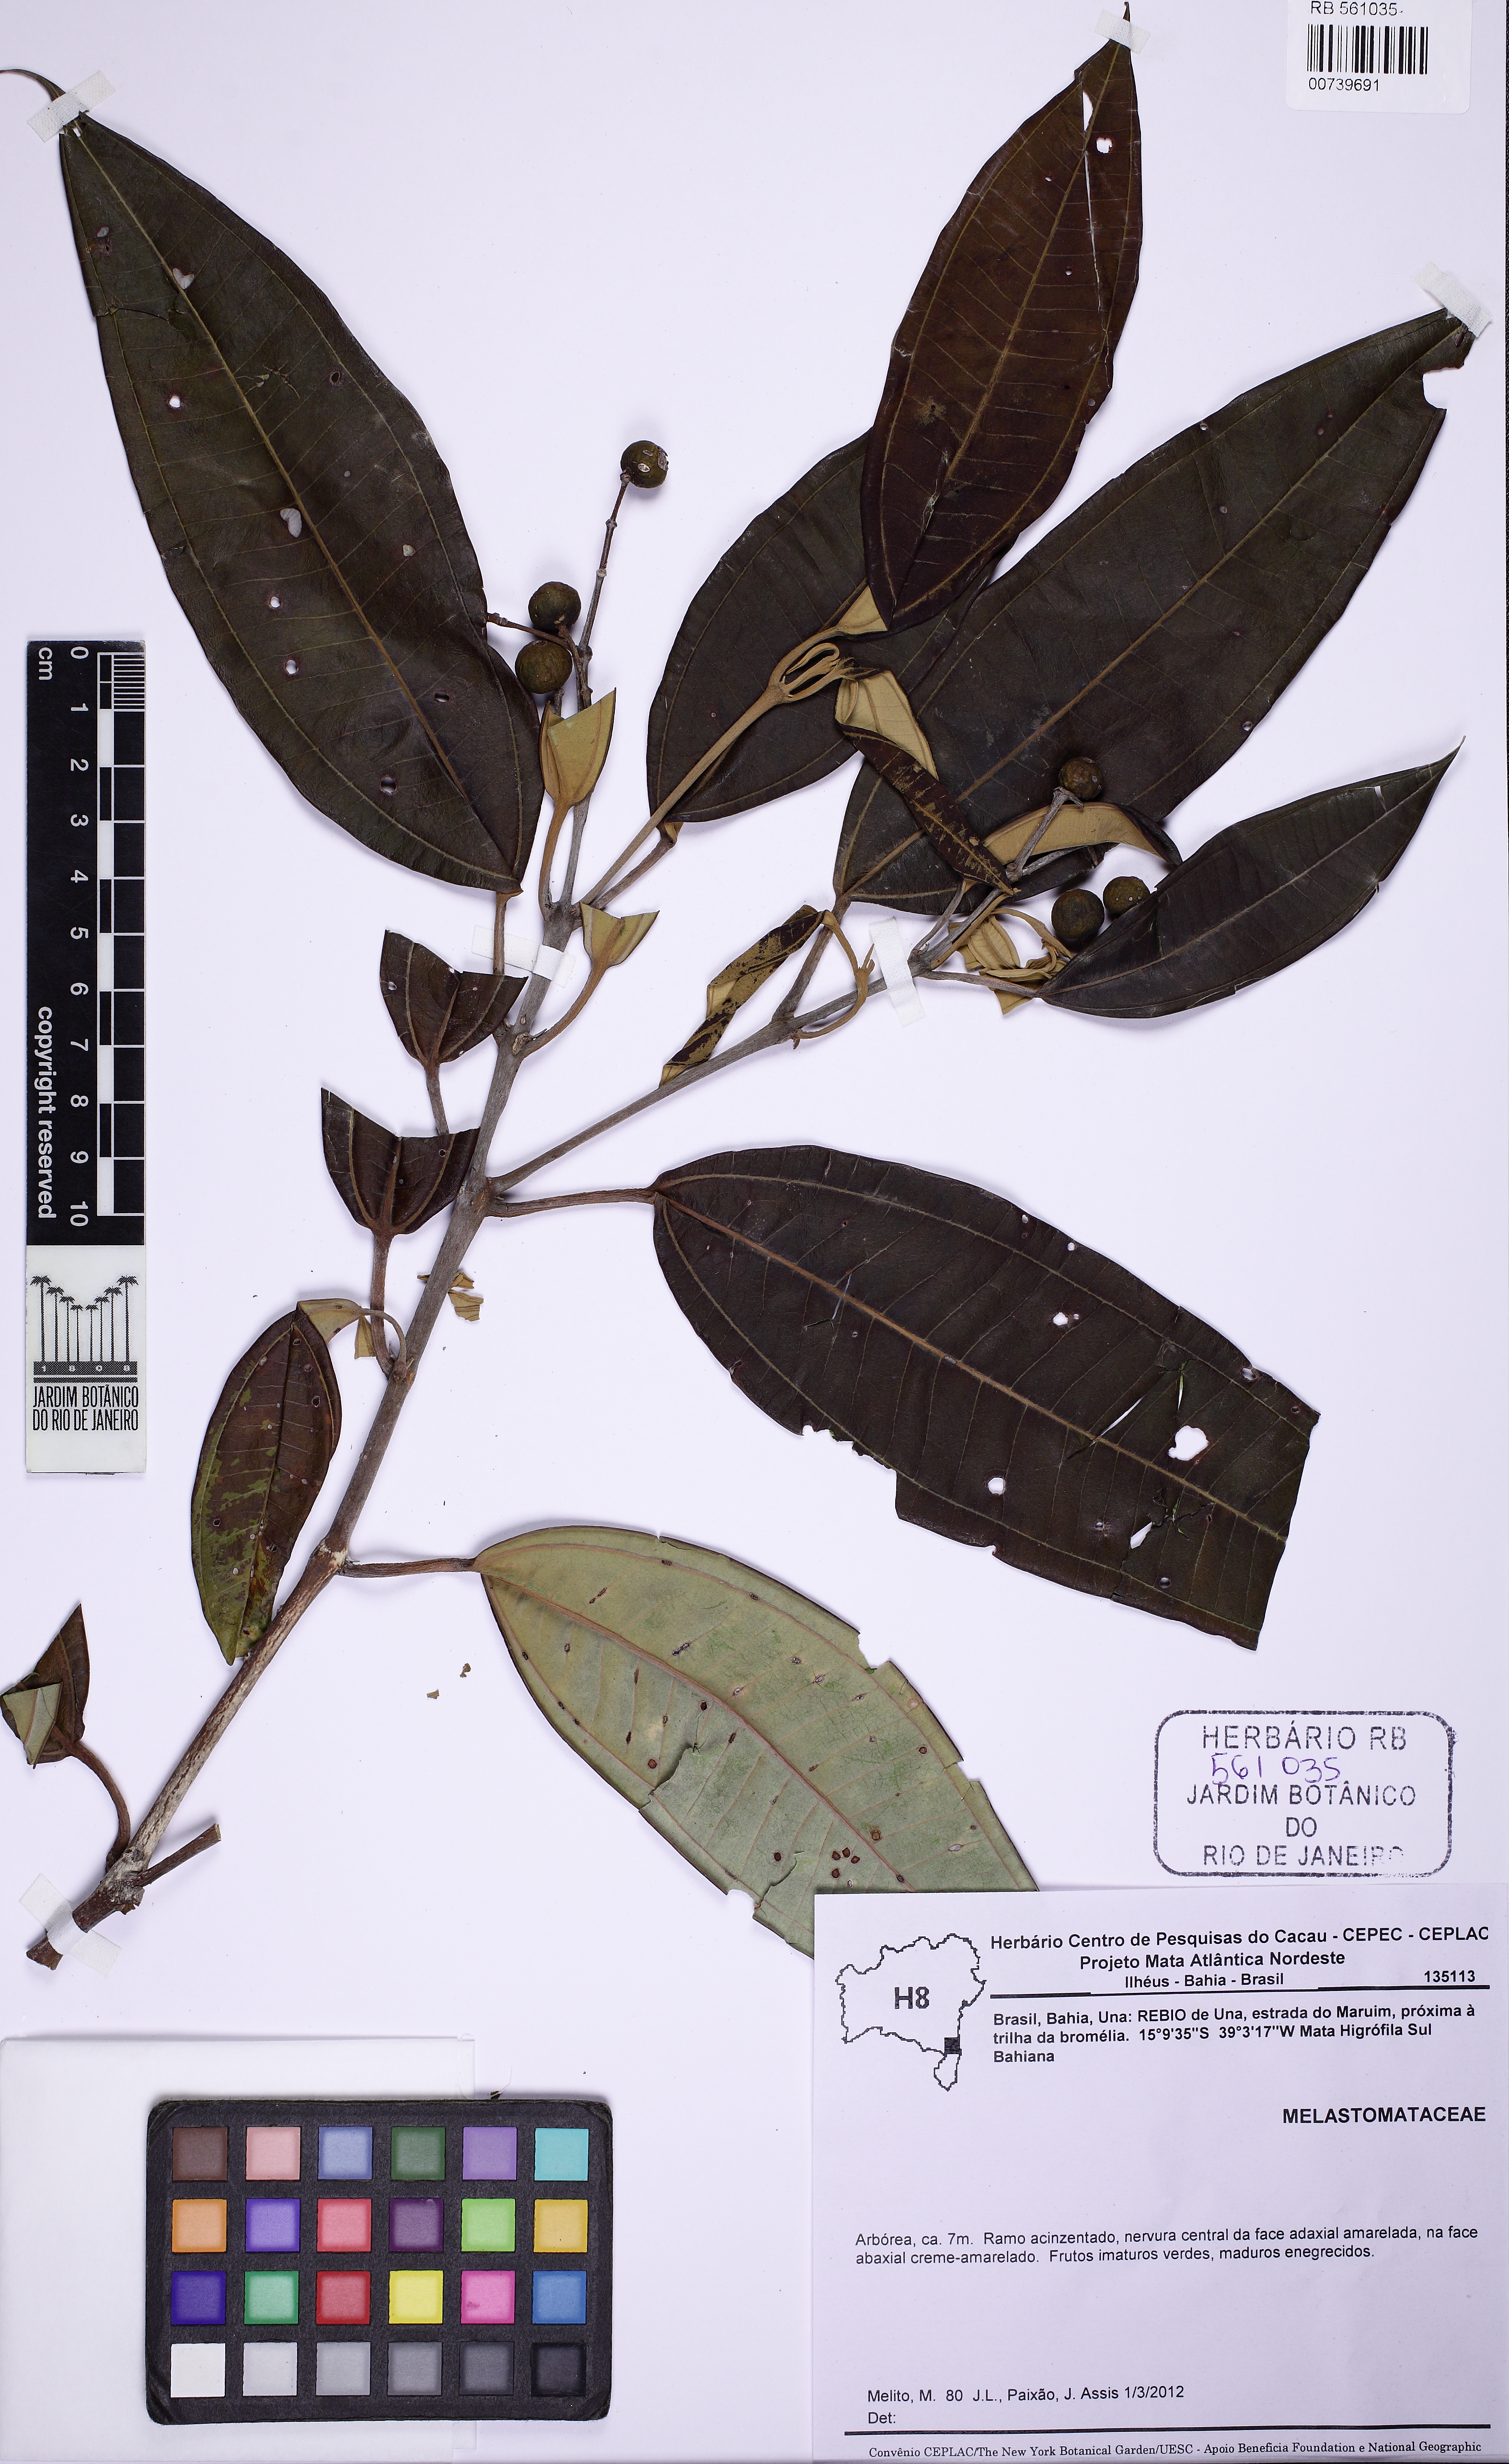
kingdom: Plantae
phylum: Tracheophyta
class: Magnoliopsida
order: Myrtales
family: Melastomataceae
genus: Miconia
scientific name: Miconia lurida
